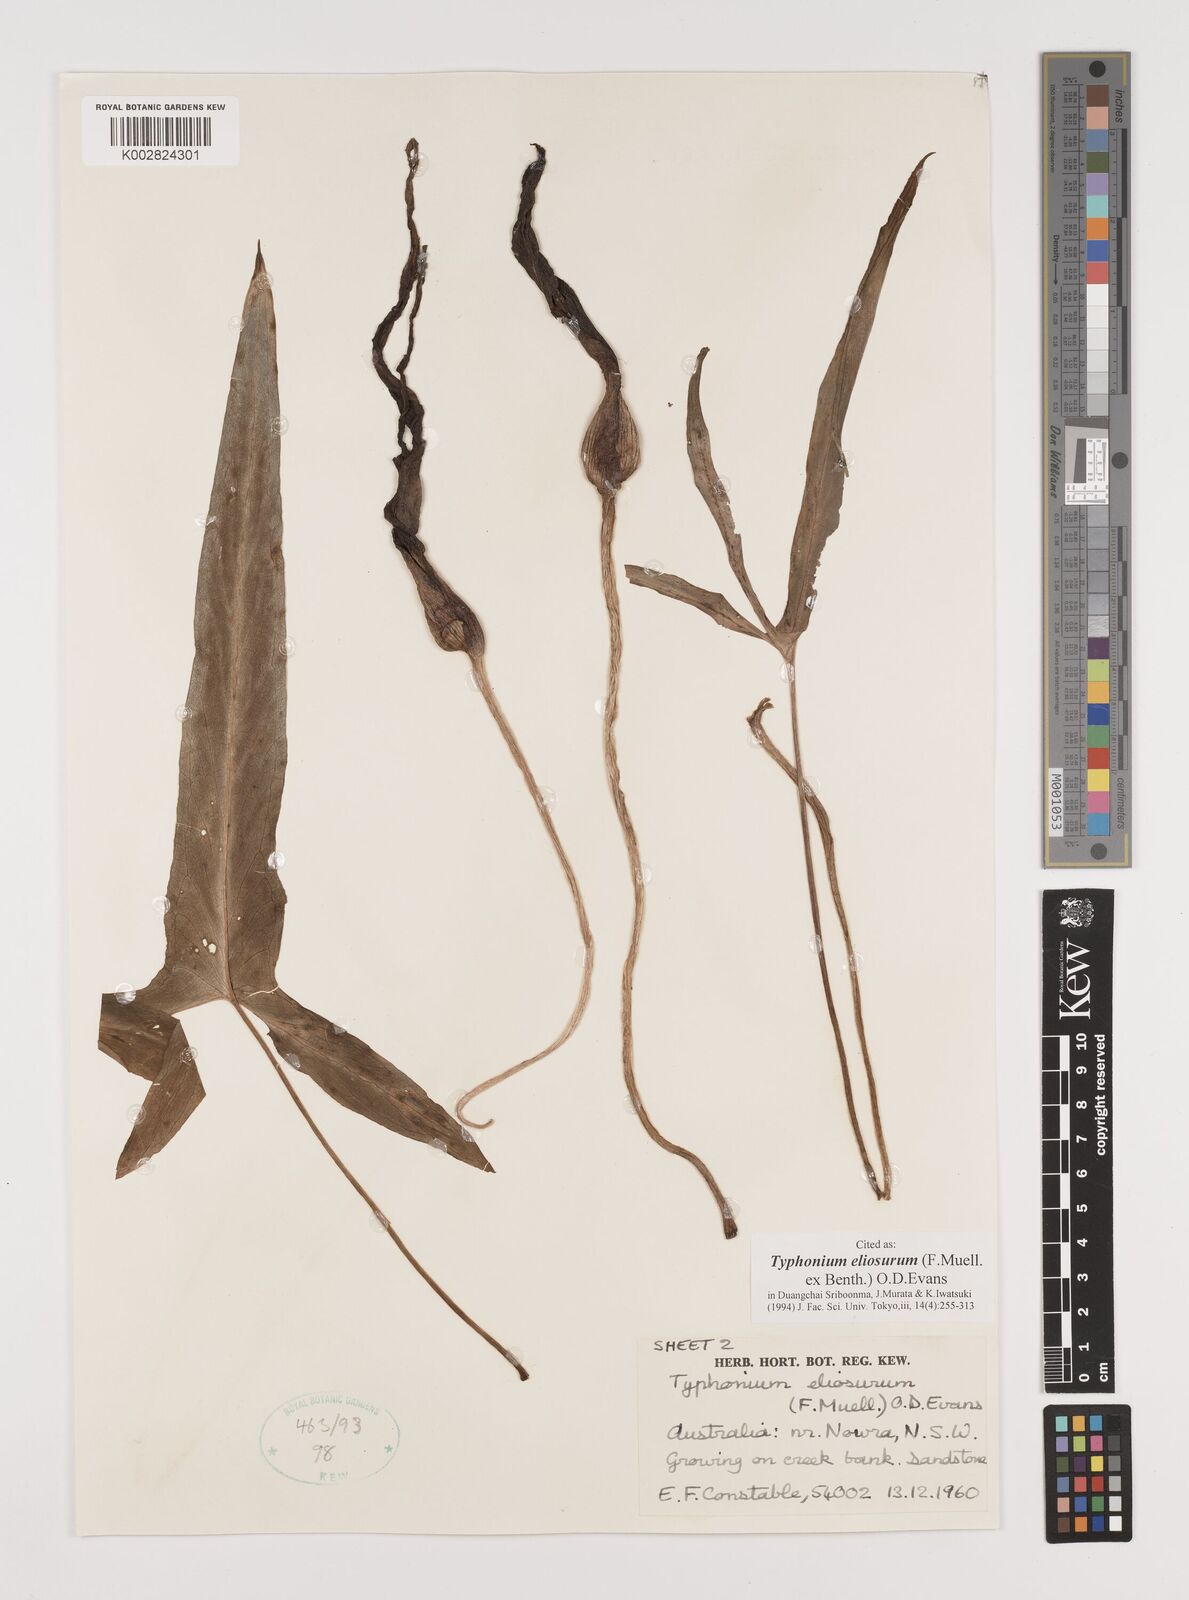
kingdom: Plantae
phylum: Tracheophyta
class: Liliopsida
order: Alismatales
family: Araceae
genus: Typhonium
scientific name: Typhonium eliosurum
